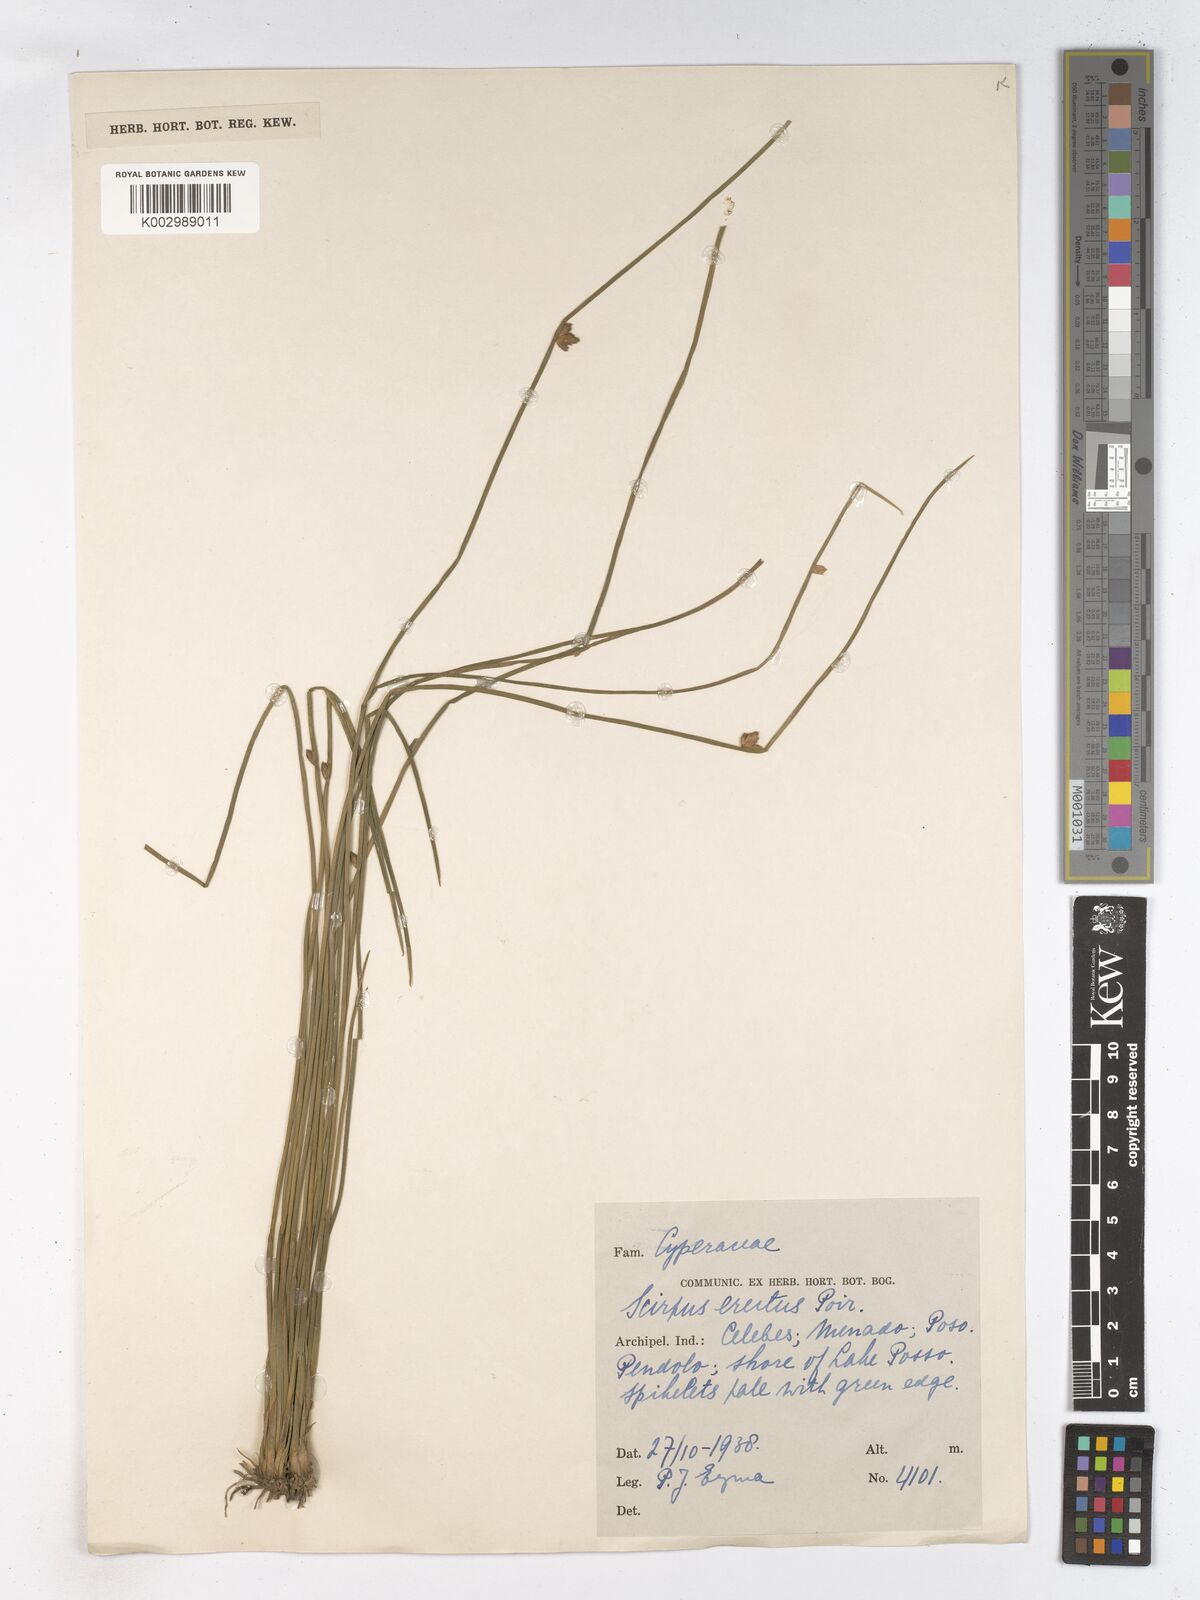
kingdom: Plantae
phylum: Tracheophyta
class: Liliopsida
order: Poales
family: Cyperaceae
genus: Schoenoplectiella
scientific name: Schoenoplectiella juncoides
